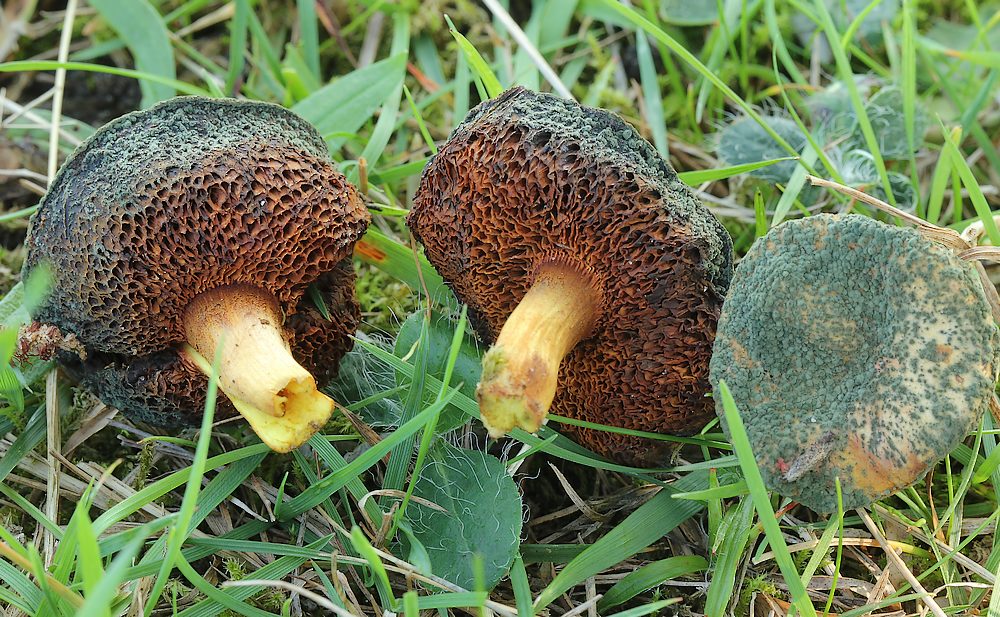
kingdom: Fungi
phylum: Basidiomycota
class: Agaricomycetes
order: Boletales
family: Boletaceae
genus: Chalciporus
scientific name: Chalciporus piperatus
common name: peberrørhat
